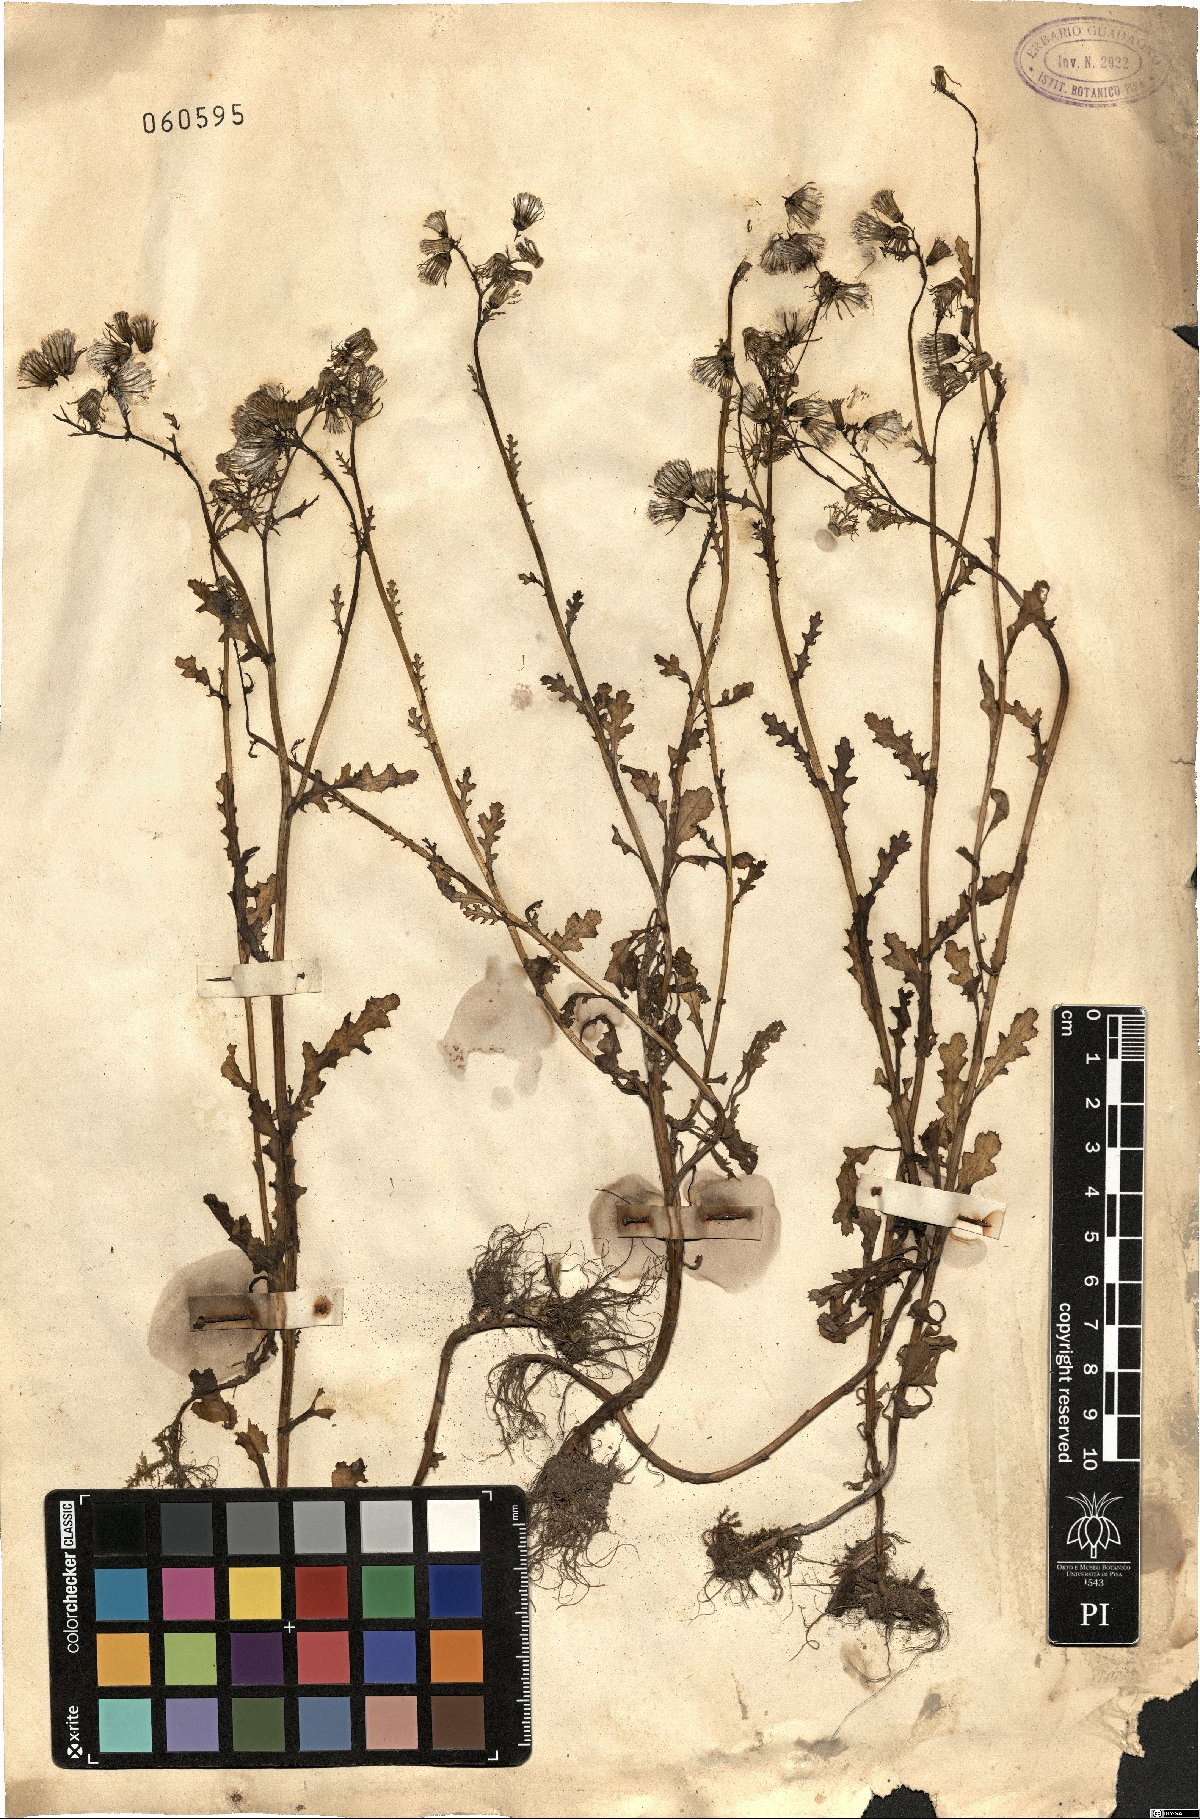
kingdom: Plantae
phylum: Tracheophyta
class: Magnoliopsida
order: Asterales
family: Asteraceae
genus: Senecio
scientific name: Senecio
